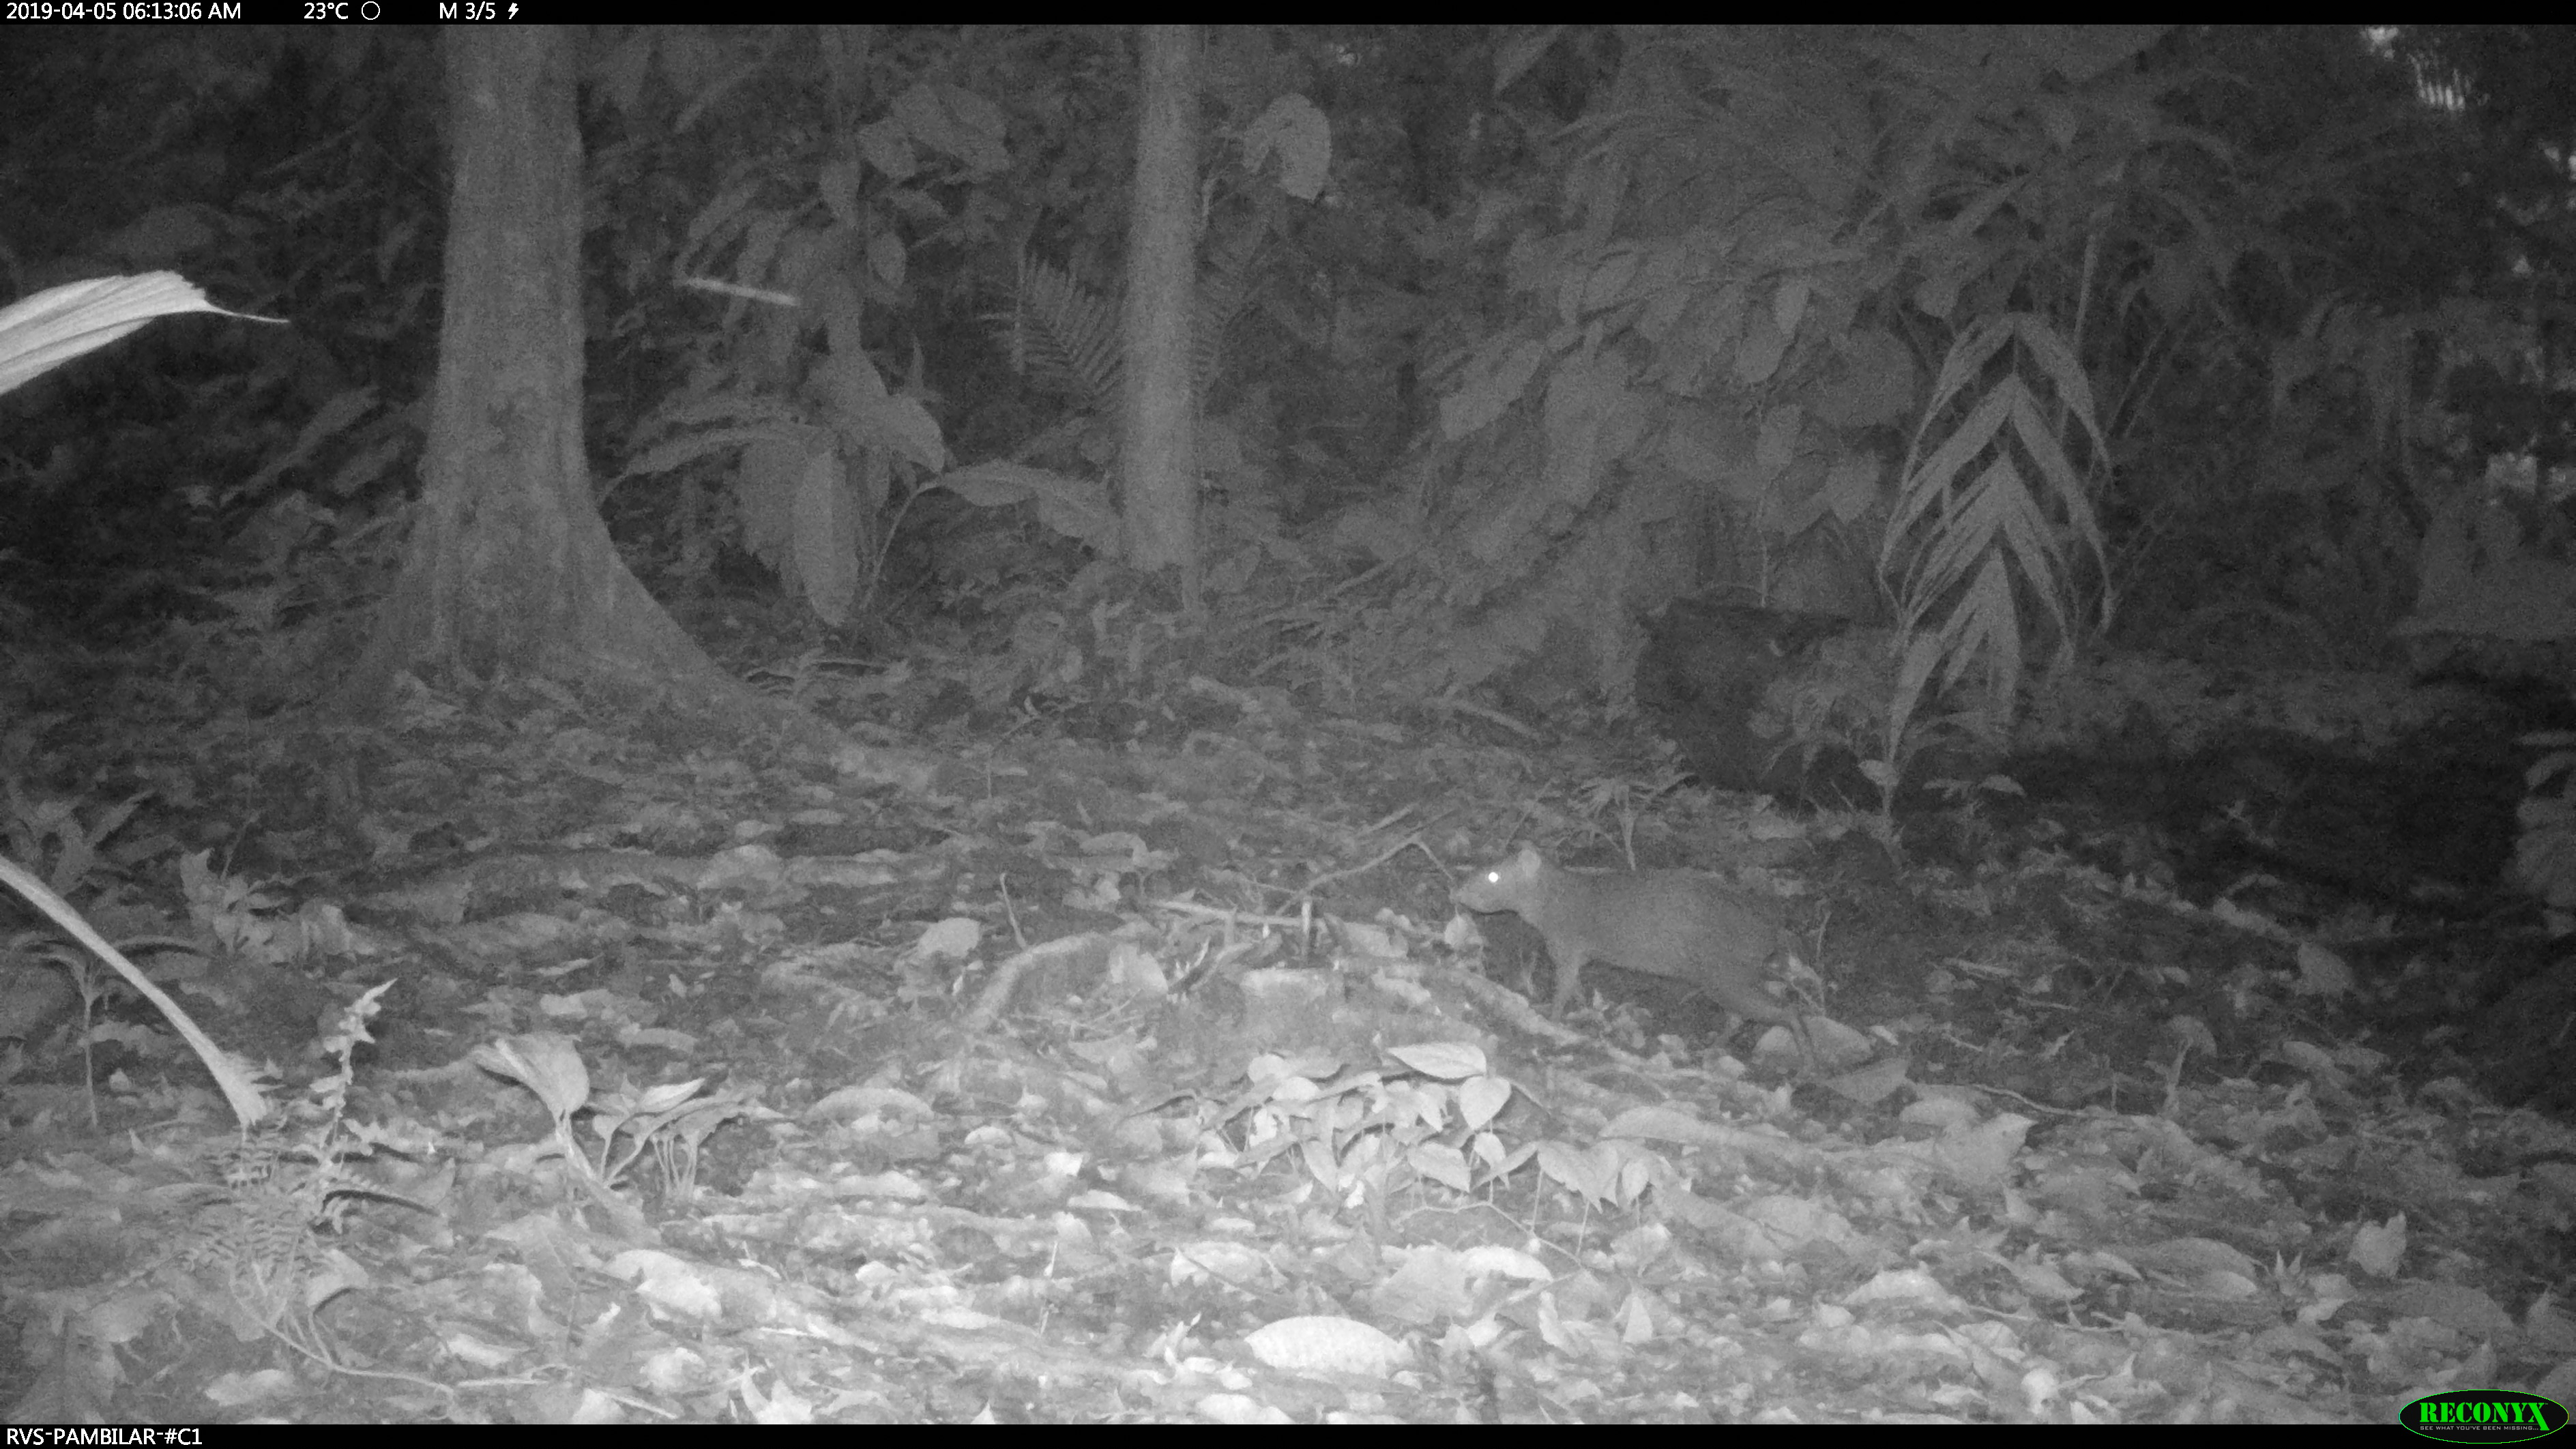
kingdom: Animalia
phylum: Chordata
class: Mammalia
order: Rodentia
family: Dasyproctidae
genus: Dasyprocta
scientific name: Dasyprocta punctata
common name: Central american agouti
